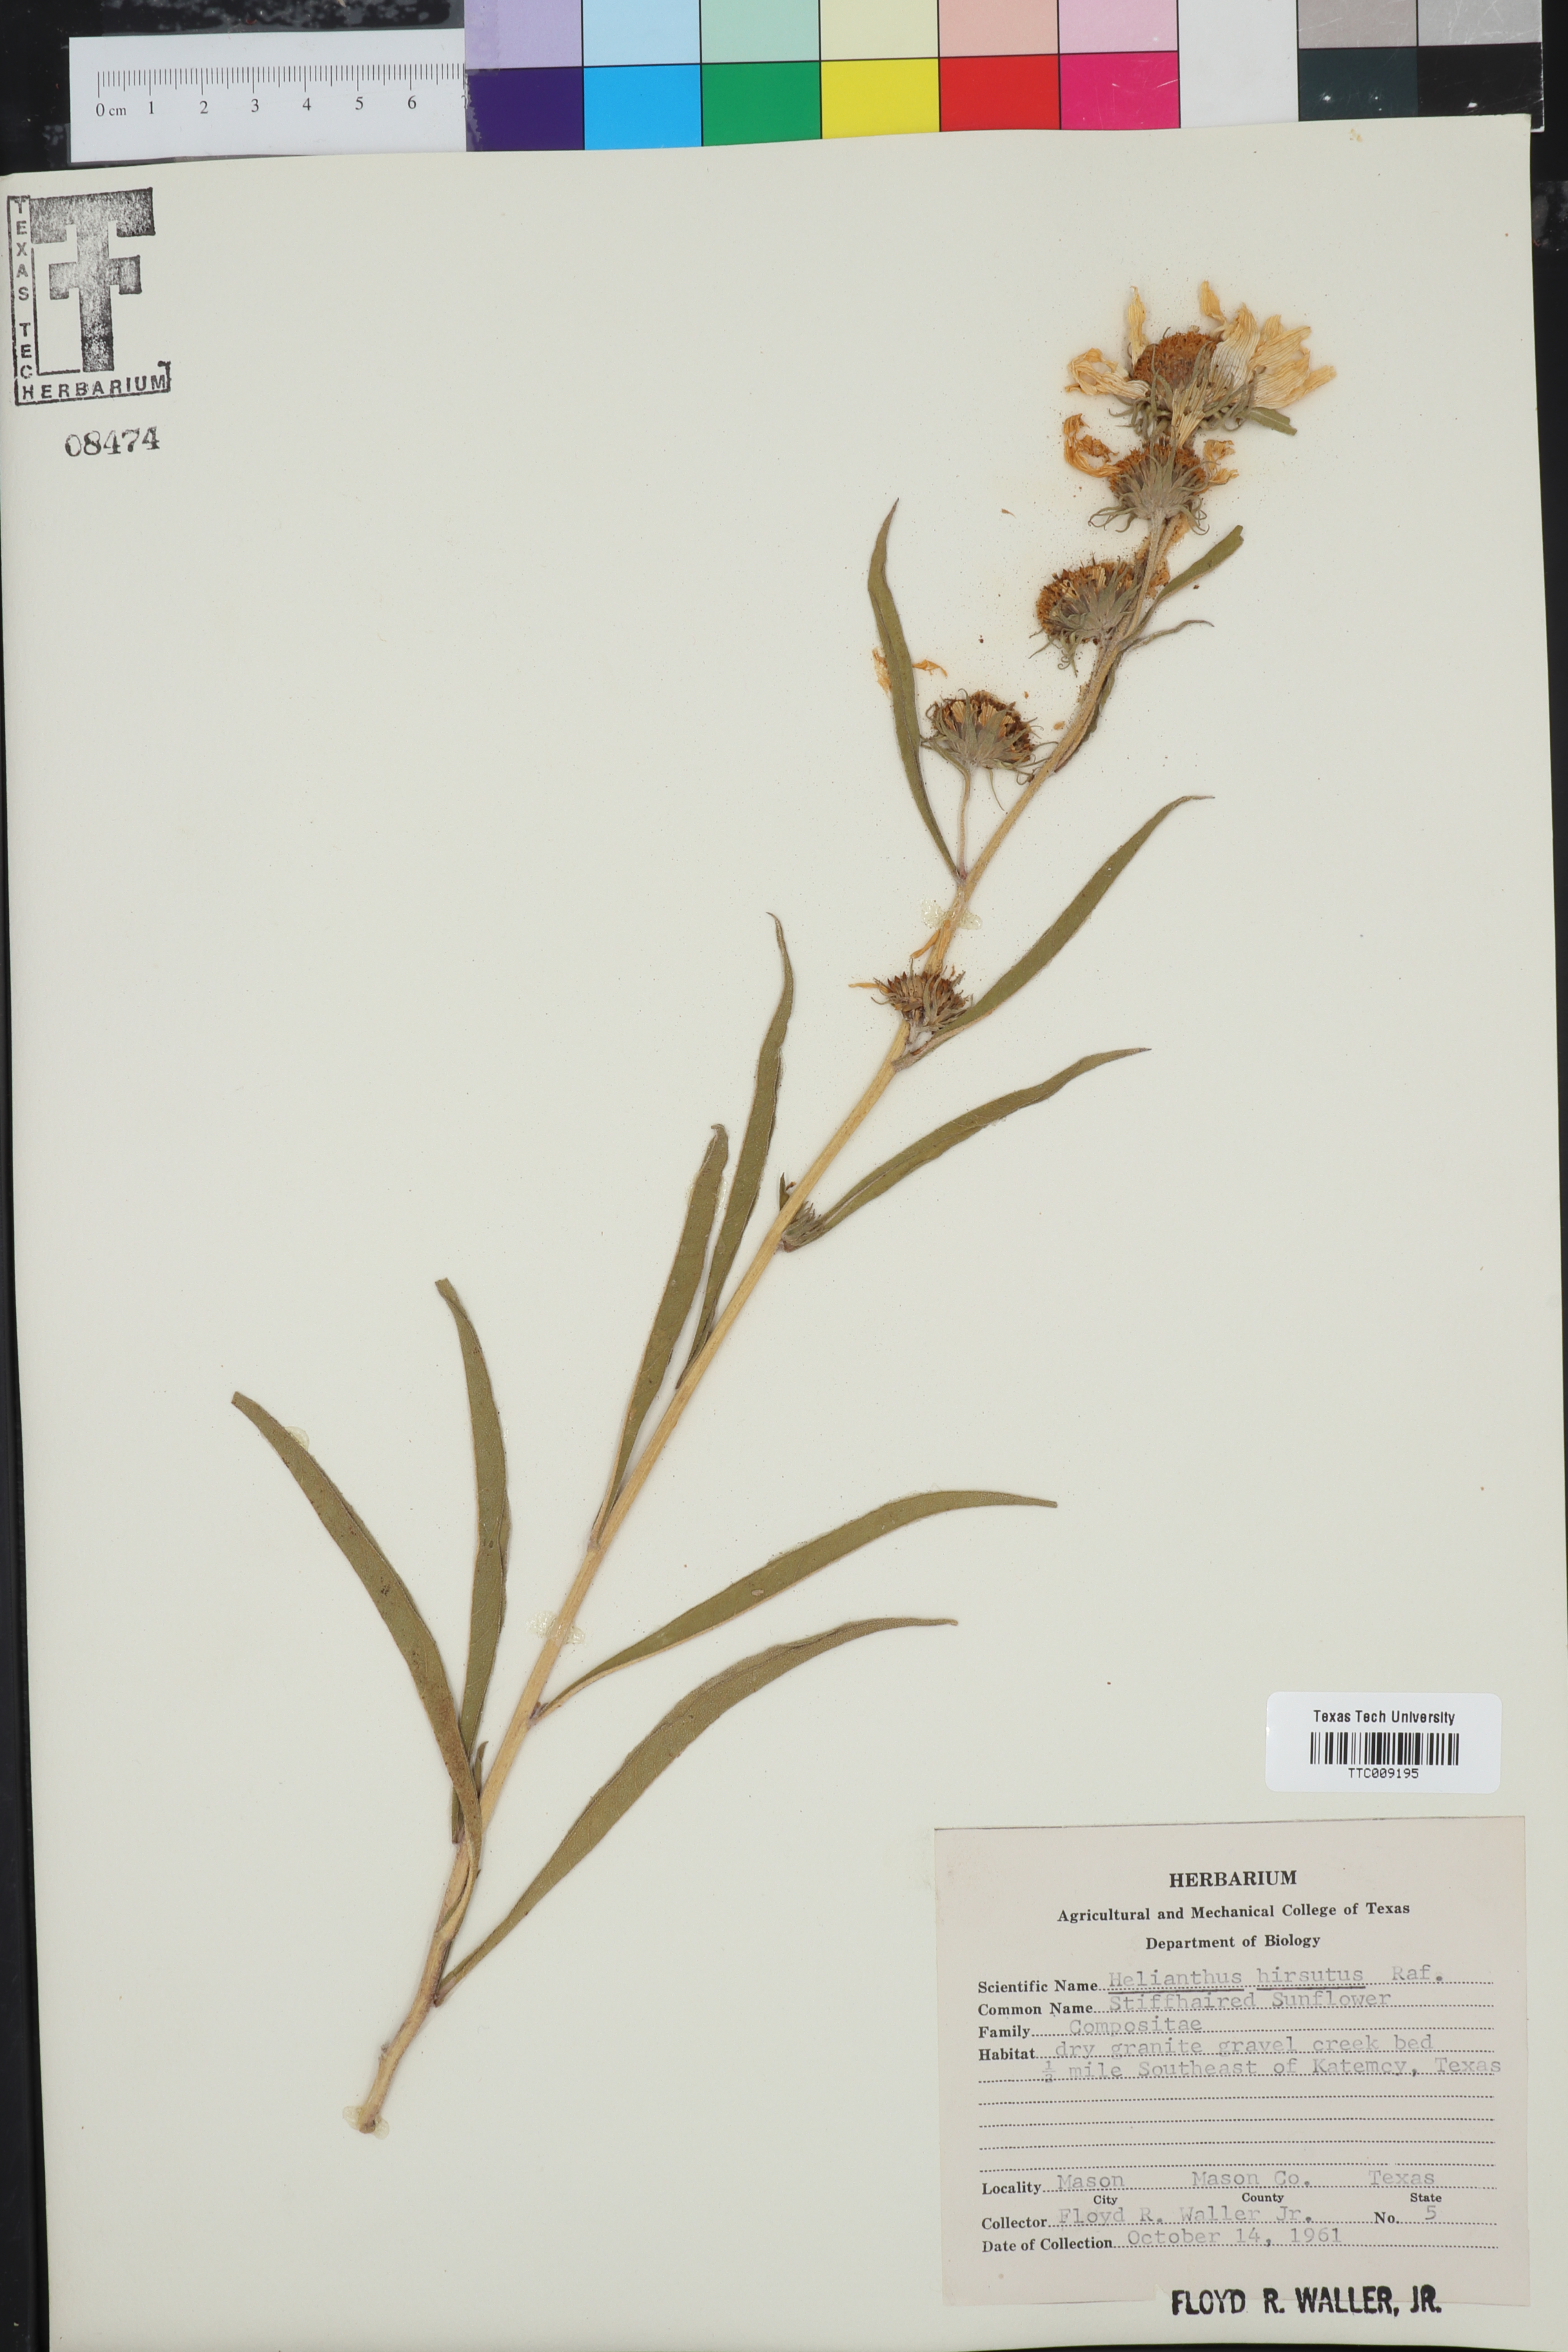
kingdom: Plantae
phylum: Tracheophyta
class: Magnoliopsida
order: Asterales
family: Asteraceae
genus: Helianthus
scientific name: Helianthus hirsutus
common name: Hairy sunflower
